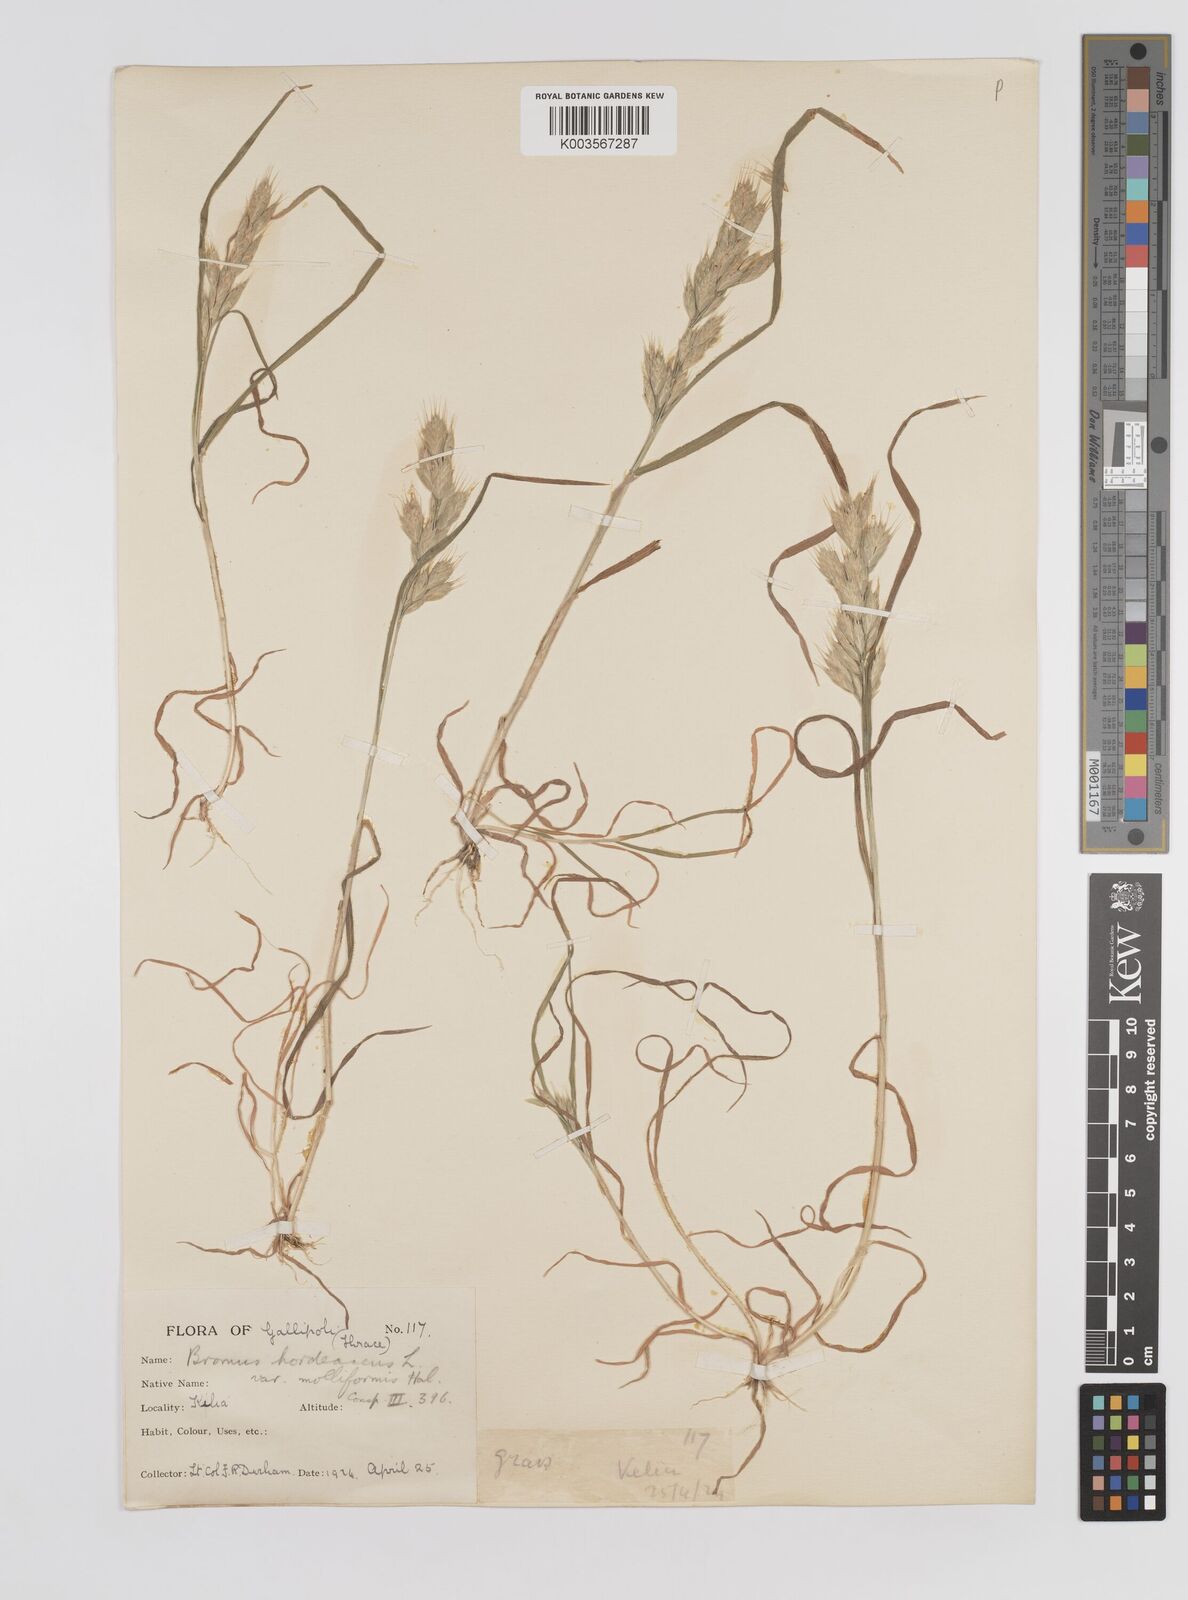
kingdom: Plantae
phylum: Tracheophyta
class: Liliopsida
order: Poales
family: Poaceae
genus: Bromus
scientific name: Bromus hordeaceus
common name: Soft brome
